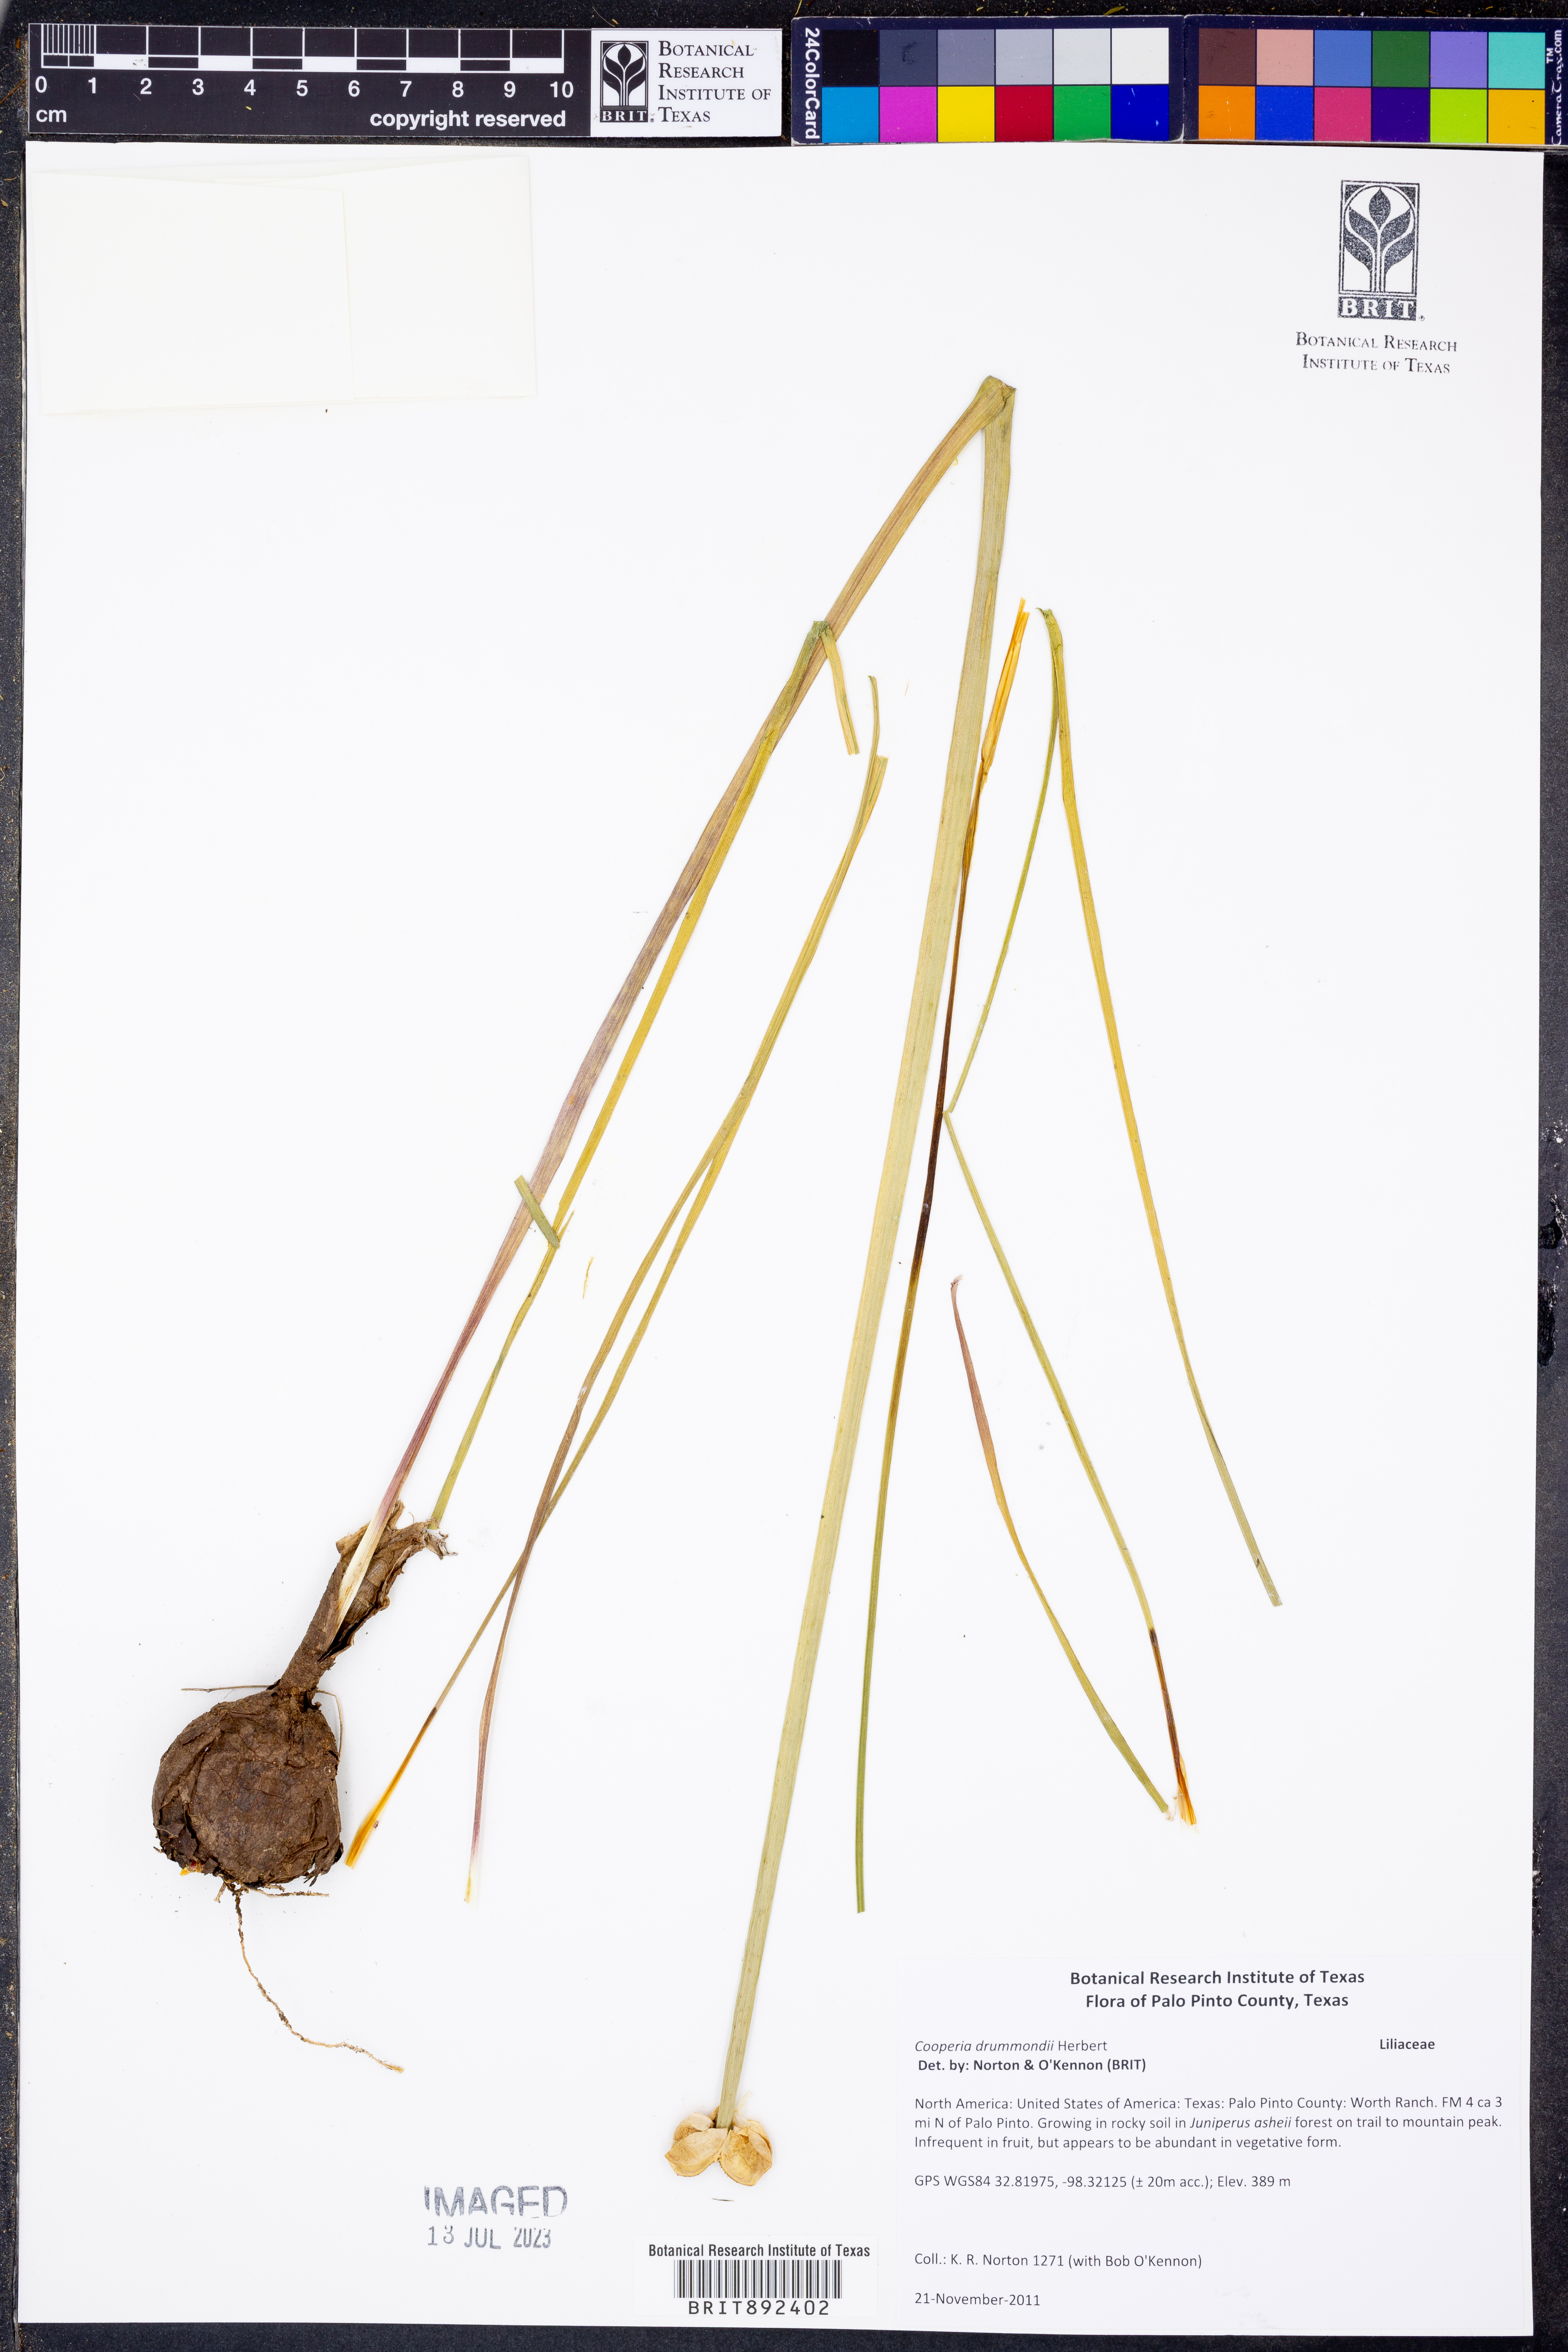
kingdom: Plantae
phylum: Tracheophyta
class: Liliopsida
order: Asparagales
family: Amaryllidaceae
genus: Zephyranthes
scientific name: Zephyranthes chlorosolen
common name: Evening rain-lily
